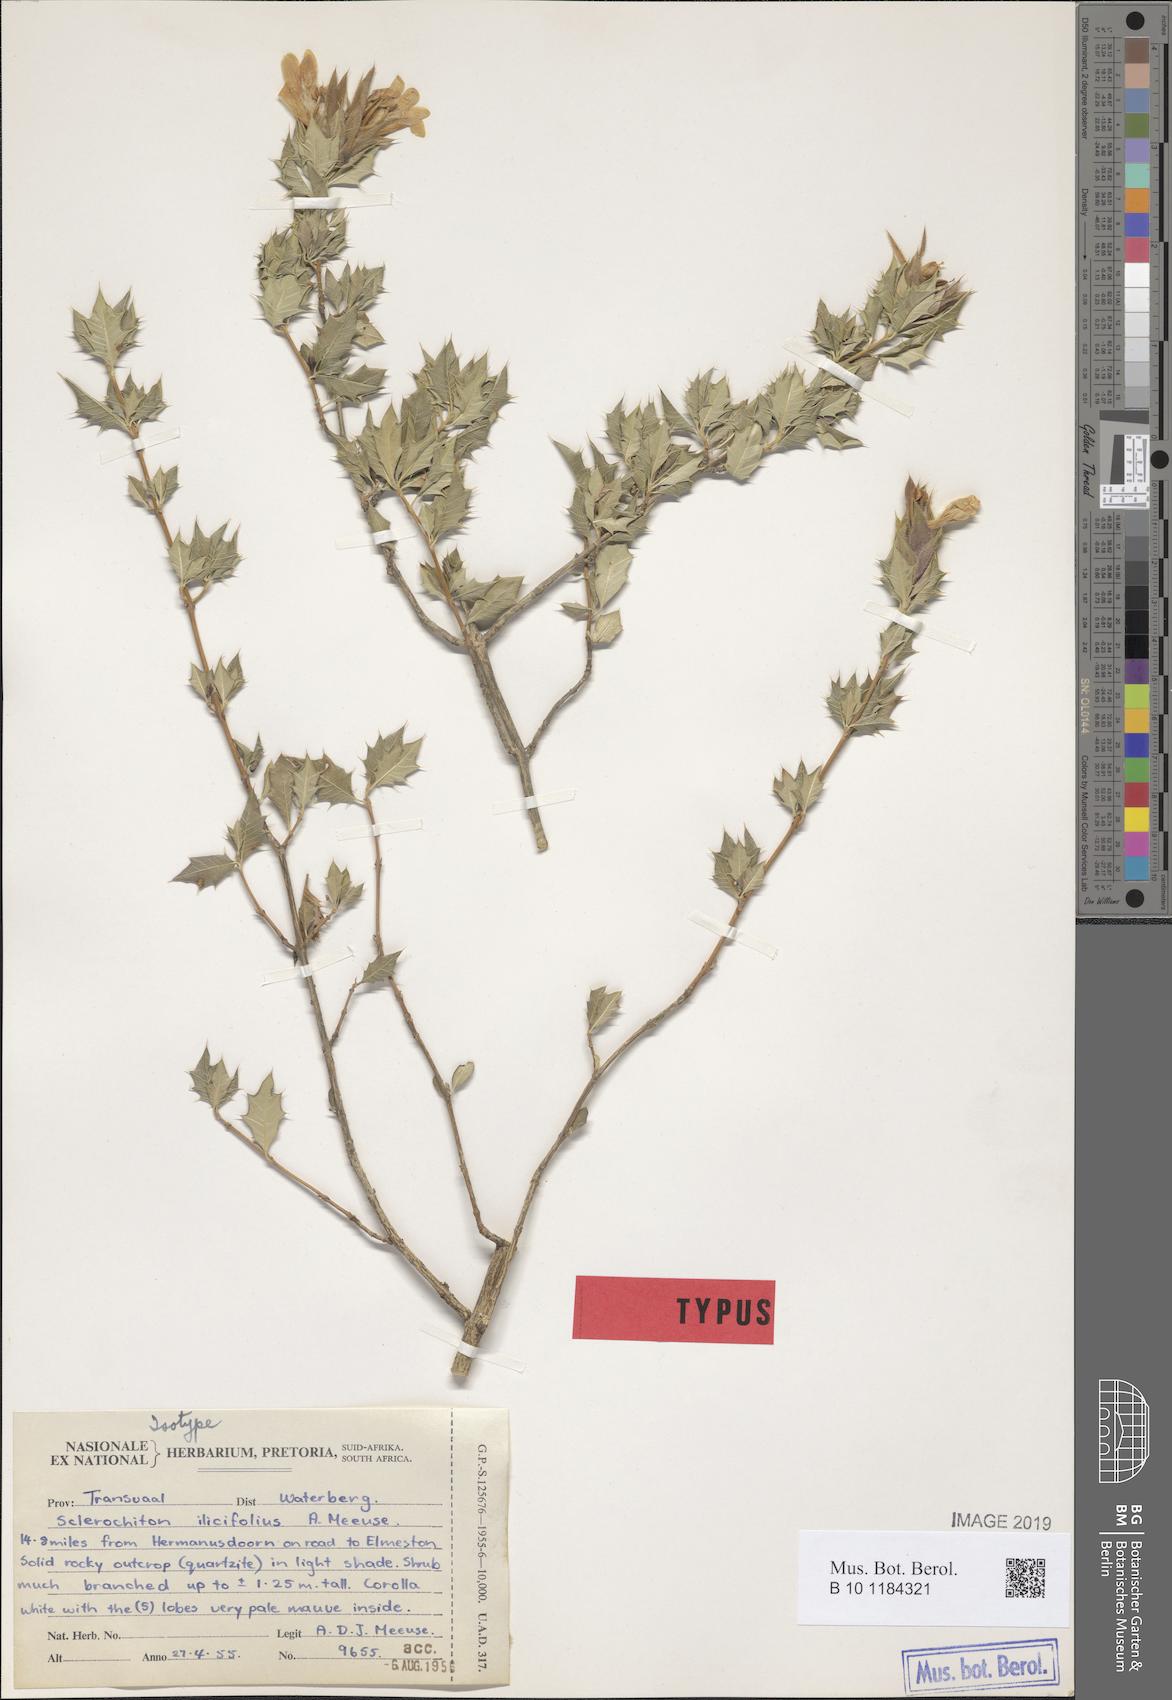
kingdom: Plantae
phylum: Tracheophyta
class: Magnoliopsida
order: Lamiales
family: Acanthaceae
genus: Sclerochiton
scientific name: Sclerochiton ilicifolius
